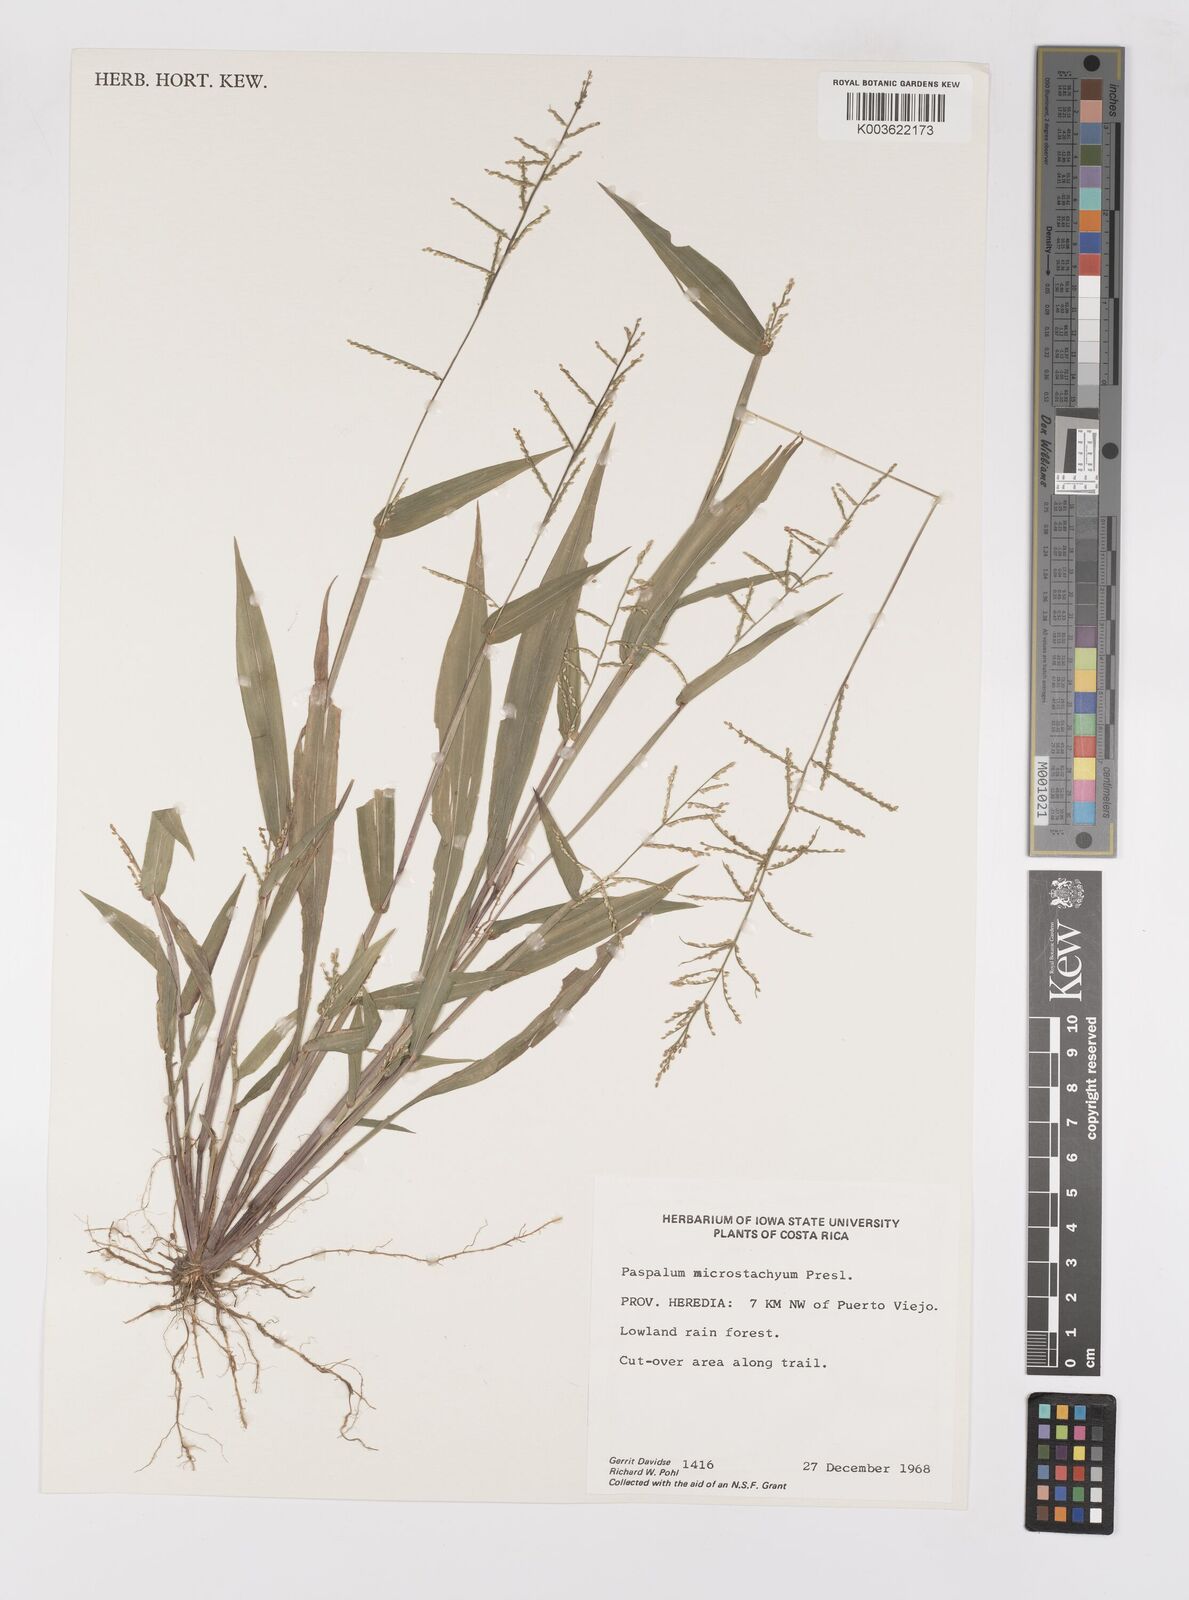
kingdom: Plantae
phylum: Tracheophyta
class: Liliopsida
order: Poales
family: Poaceae
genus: Paspalum
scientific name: Paspalum microstachyum
